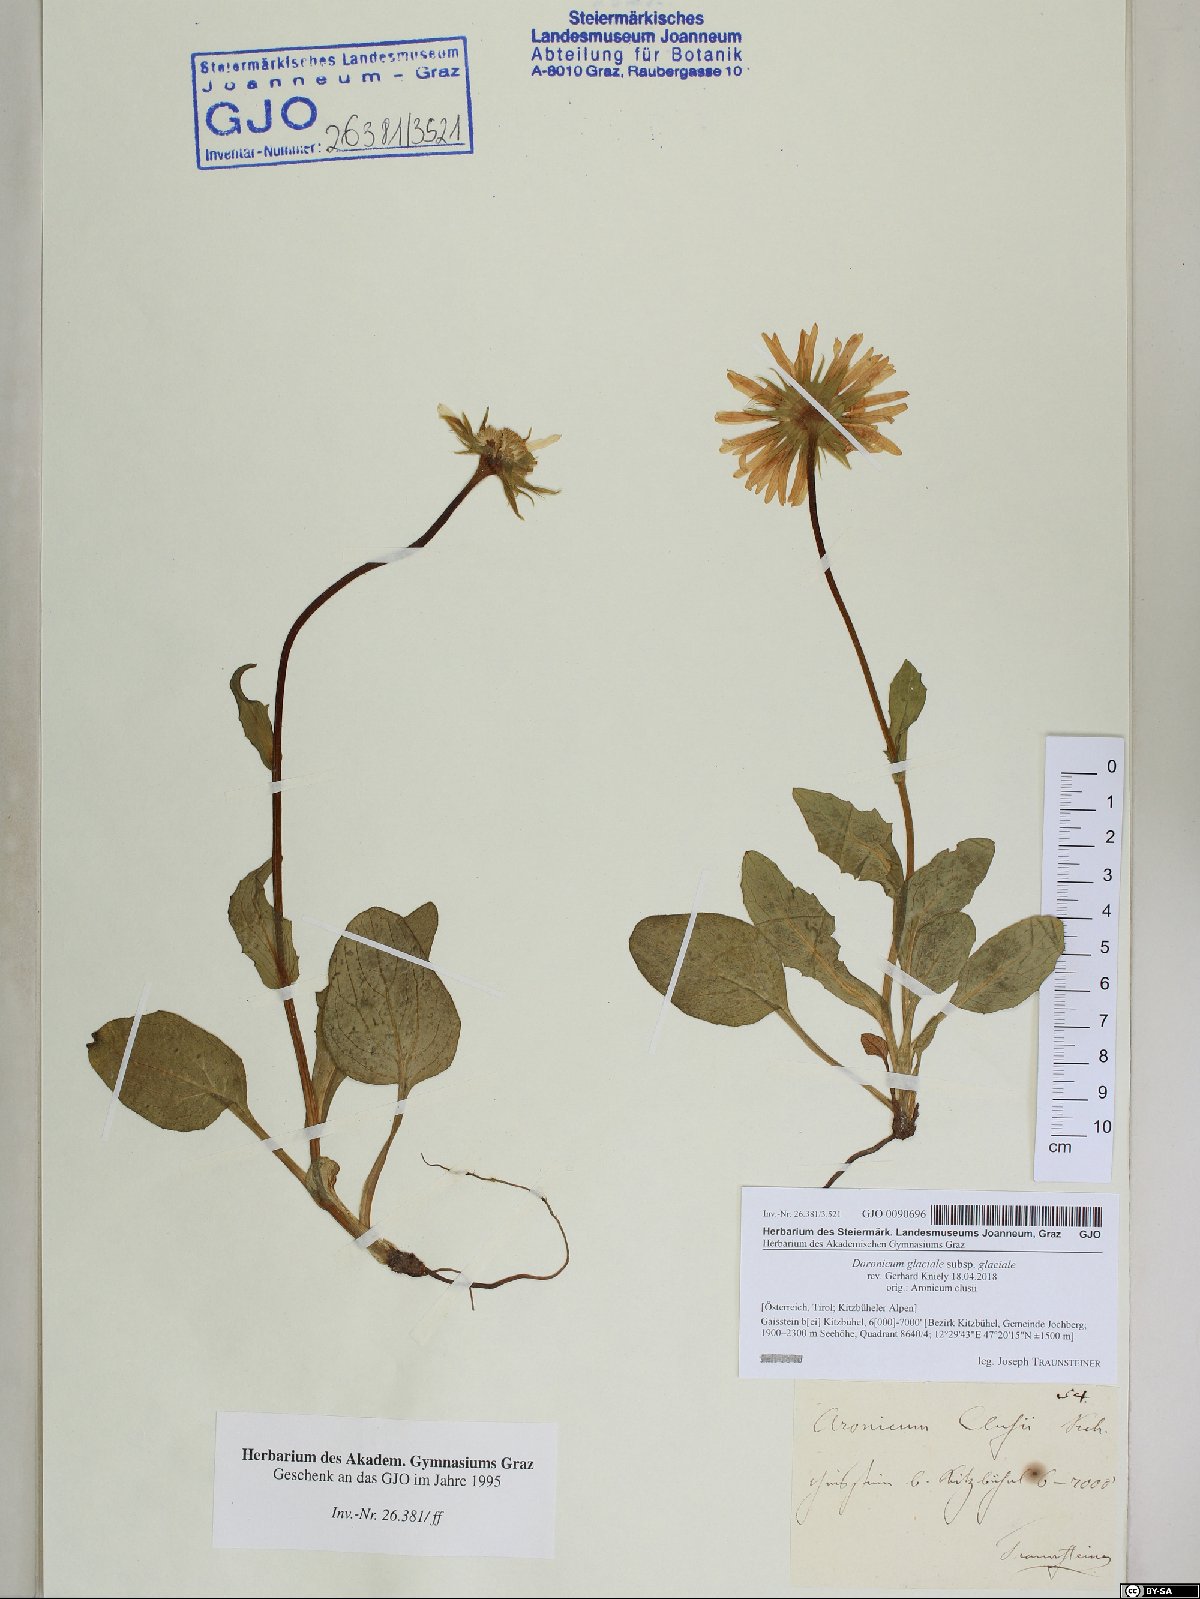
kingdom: Plantae
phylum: Tracheophyta
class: Magnoliopsida
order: Asterales
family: Asteraceae
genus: Doronicum
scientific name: Doronicum glaciale
